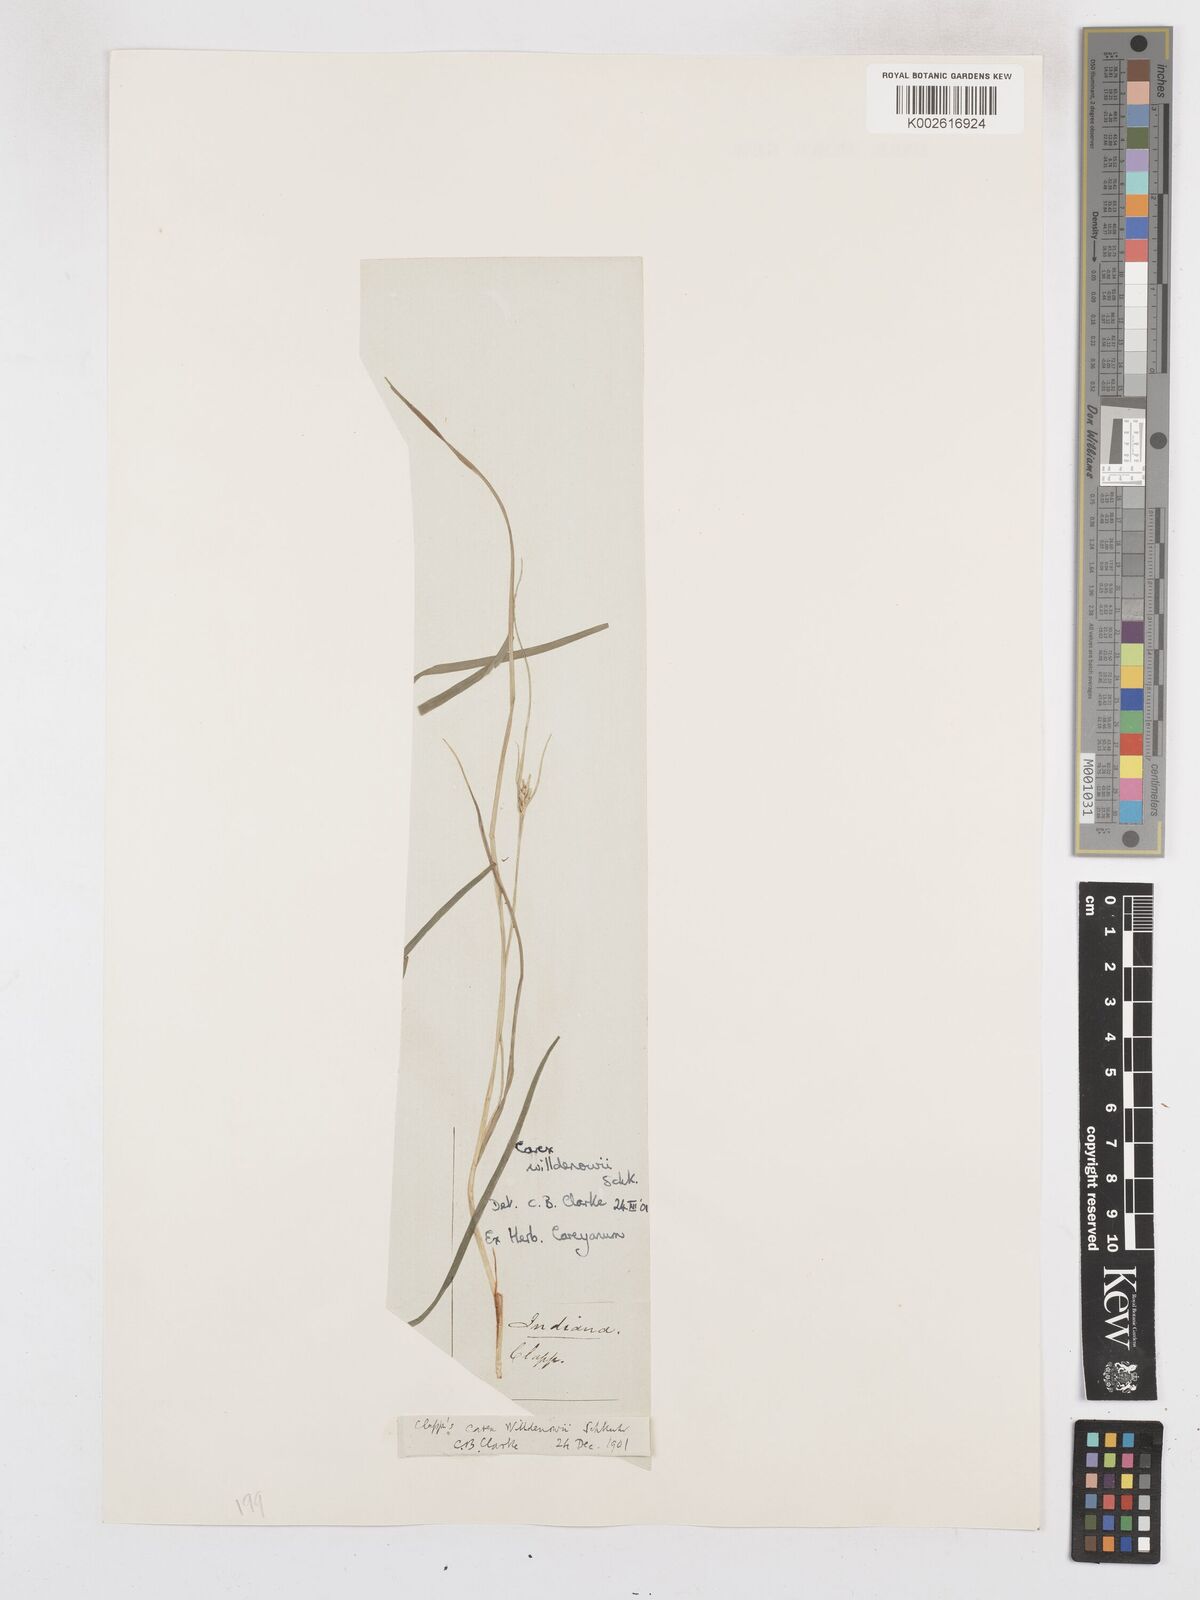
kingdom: Plantae
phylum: Tracheophyta
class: Liliopsida
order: Poales
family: Cyperaceae
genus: Carex
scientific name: Carex willdenowii
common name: Willdenow's sedge
